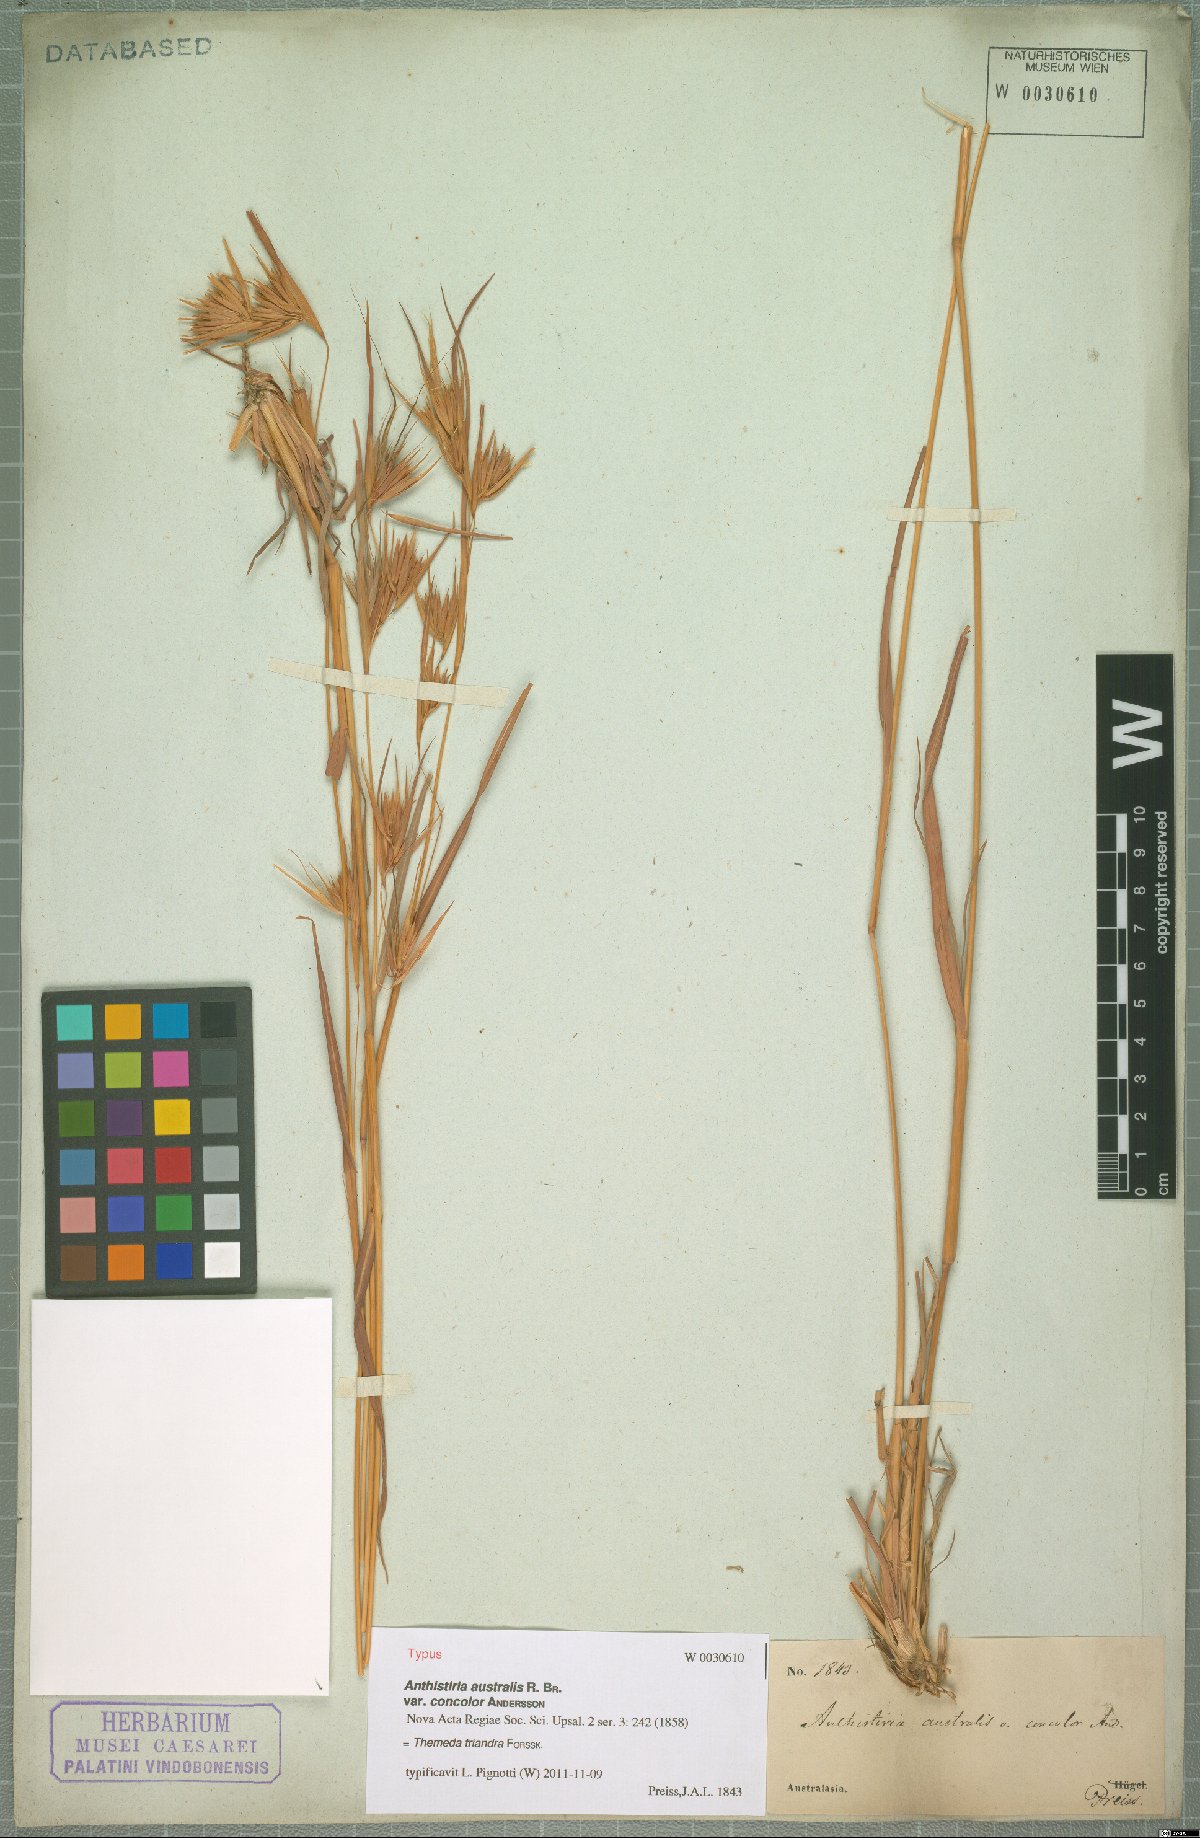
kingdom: Plantae
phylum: Tracheophyta
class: Liliopsida
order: Poales
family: Poaceae
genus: Themeda
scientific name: Themeda triandra
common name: Kangaroo grass
